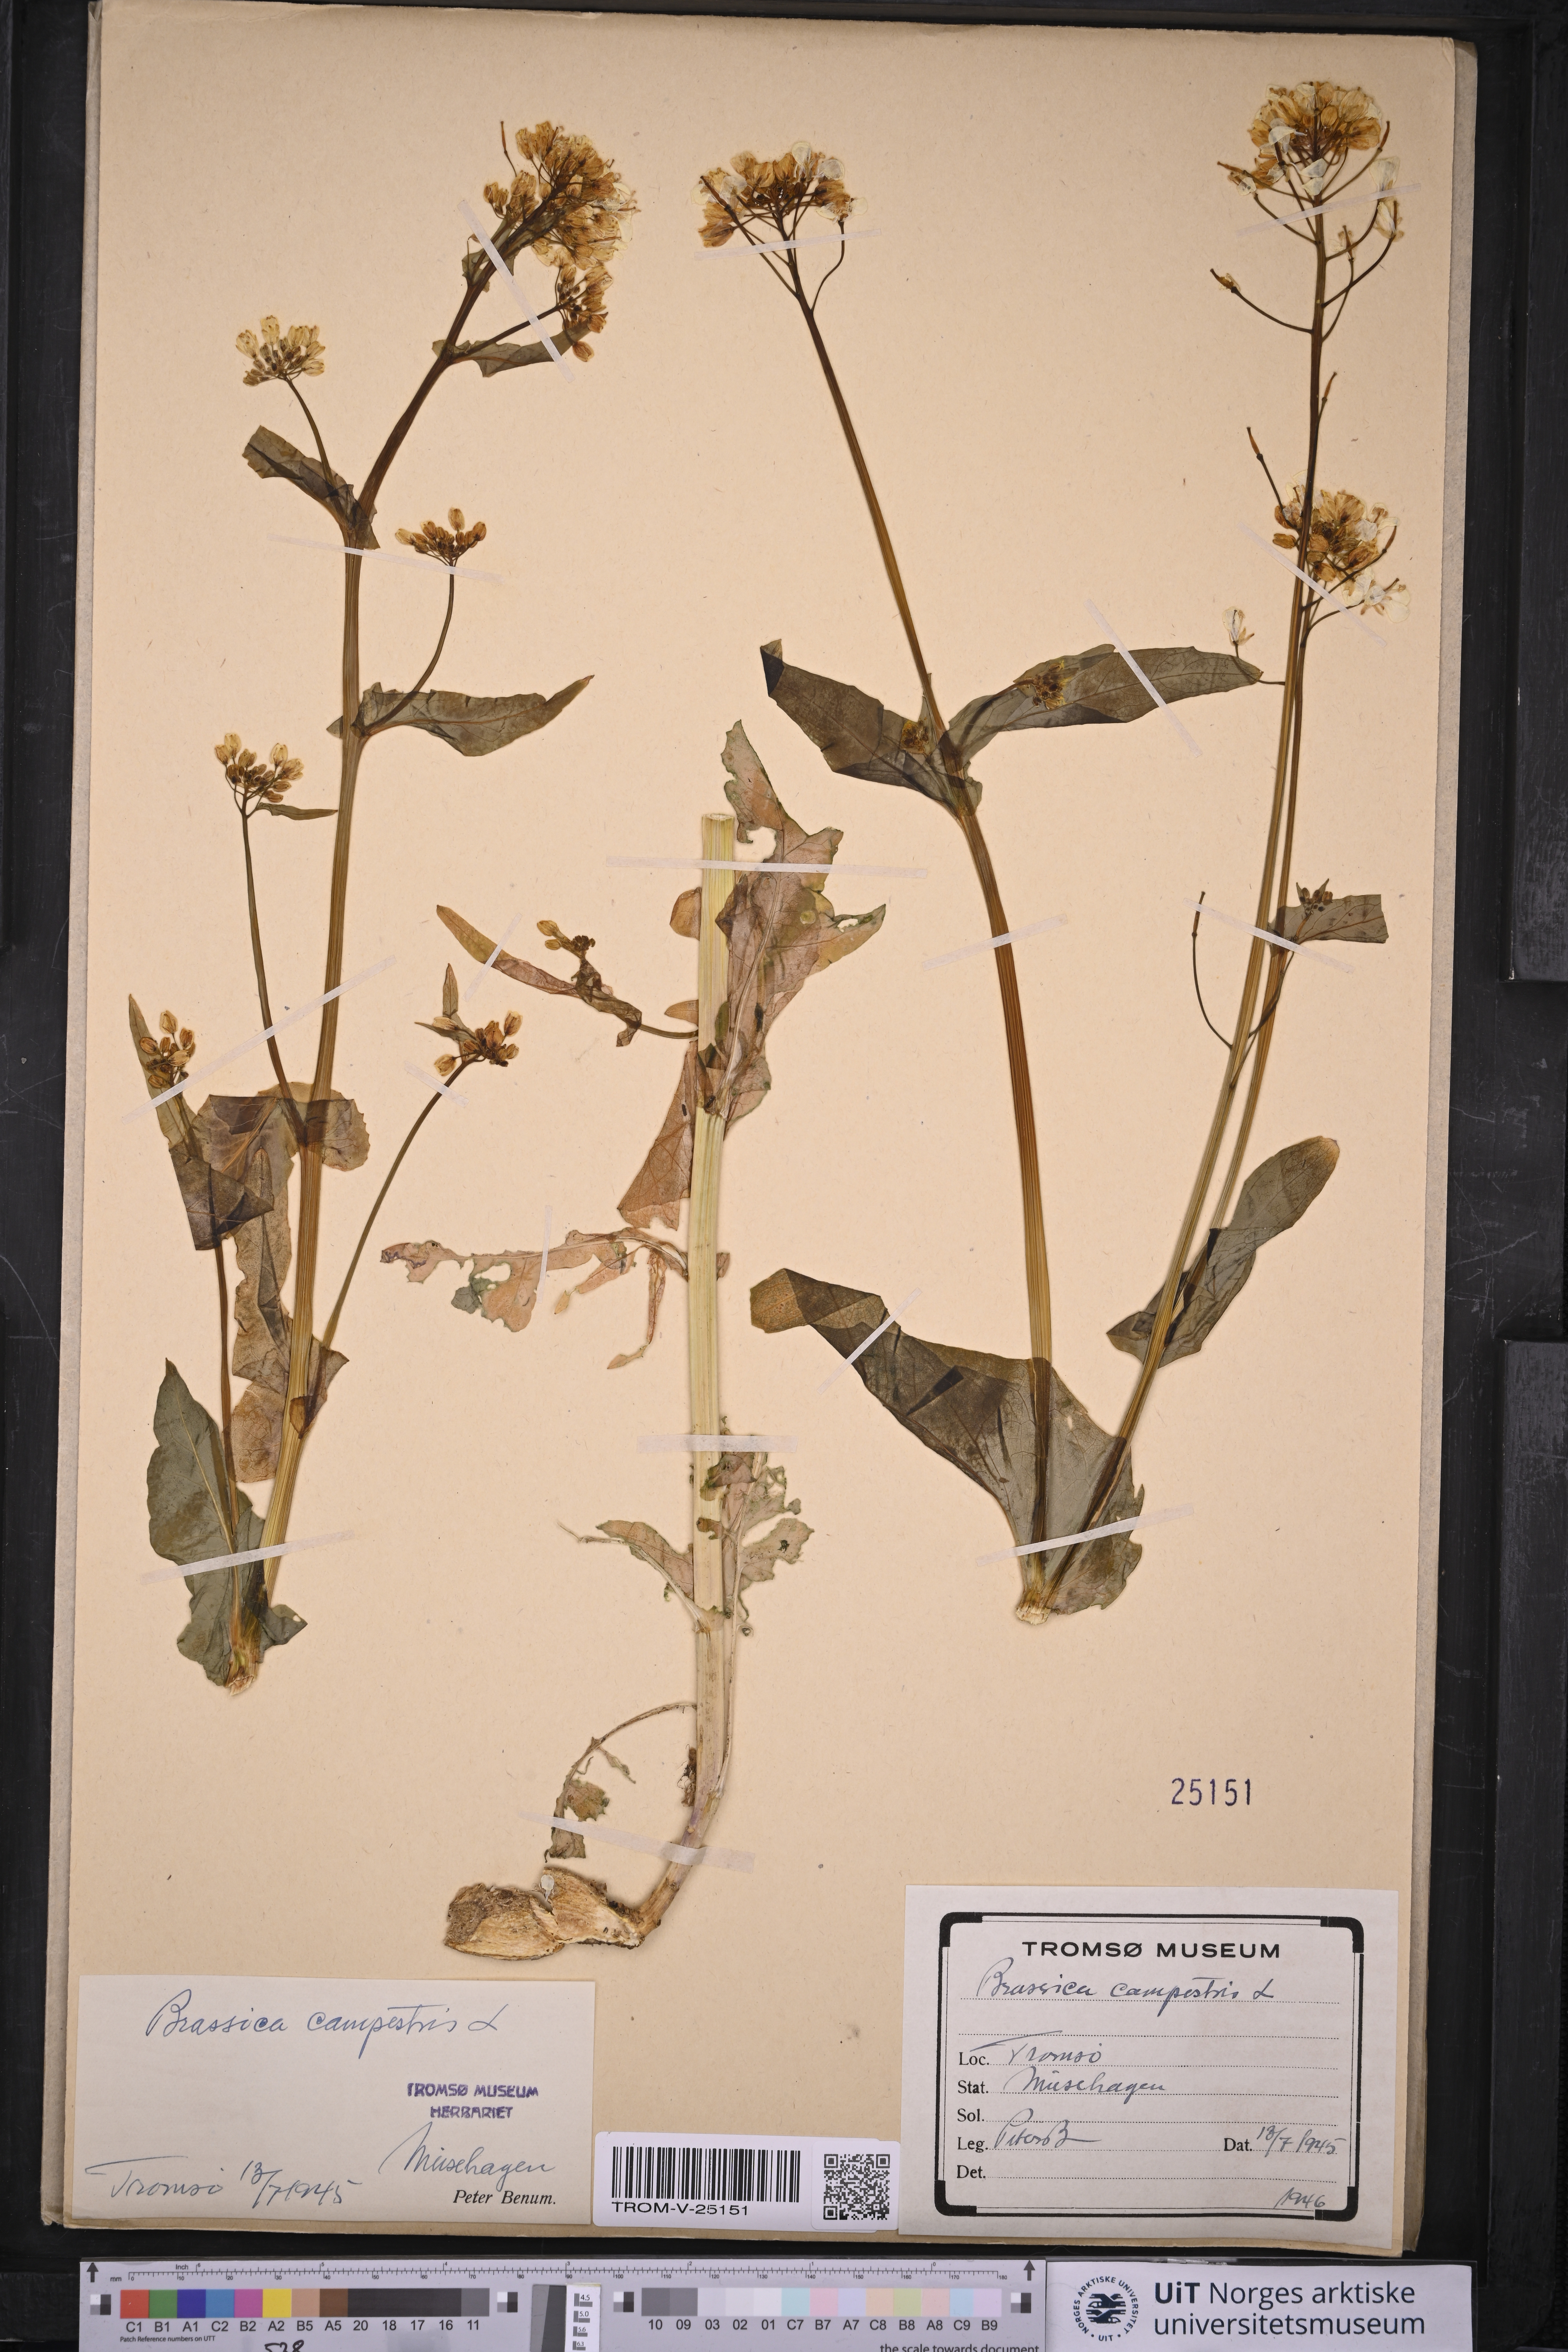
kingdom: Plantae
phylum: Tracheophyta
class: Magnoliopsida
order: Brassicales
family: Brassicaceae
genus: Brassica
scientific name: Brassica rapa
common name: Field mustard
